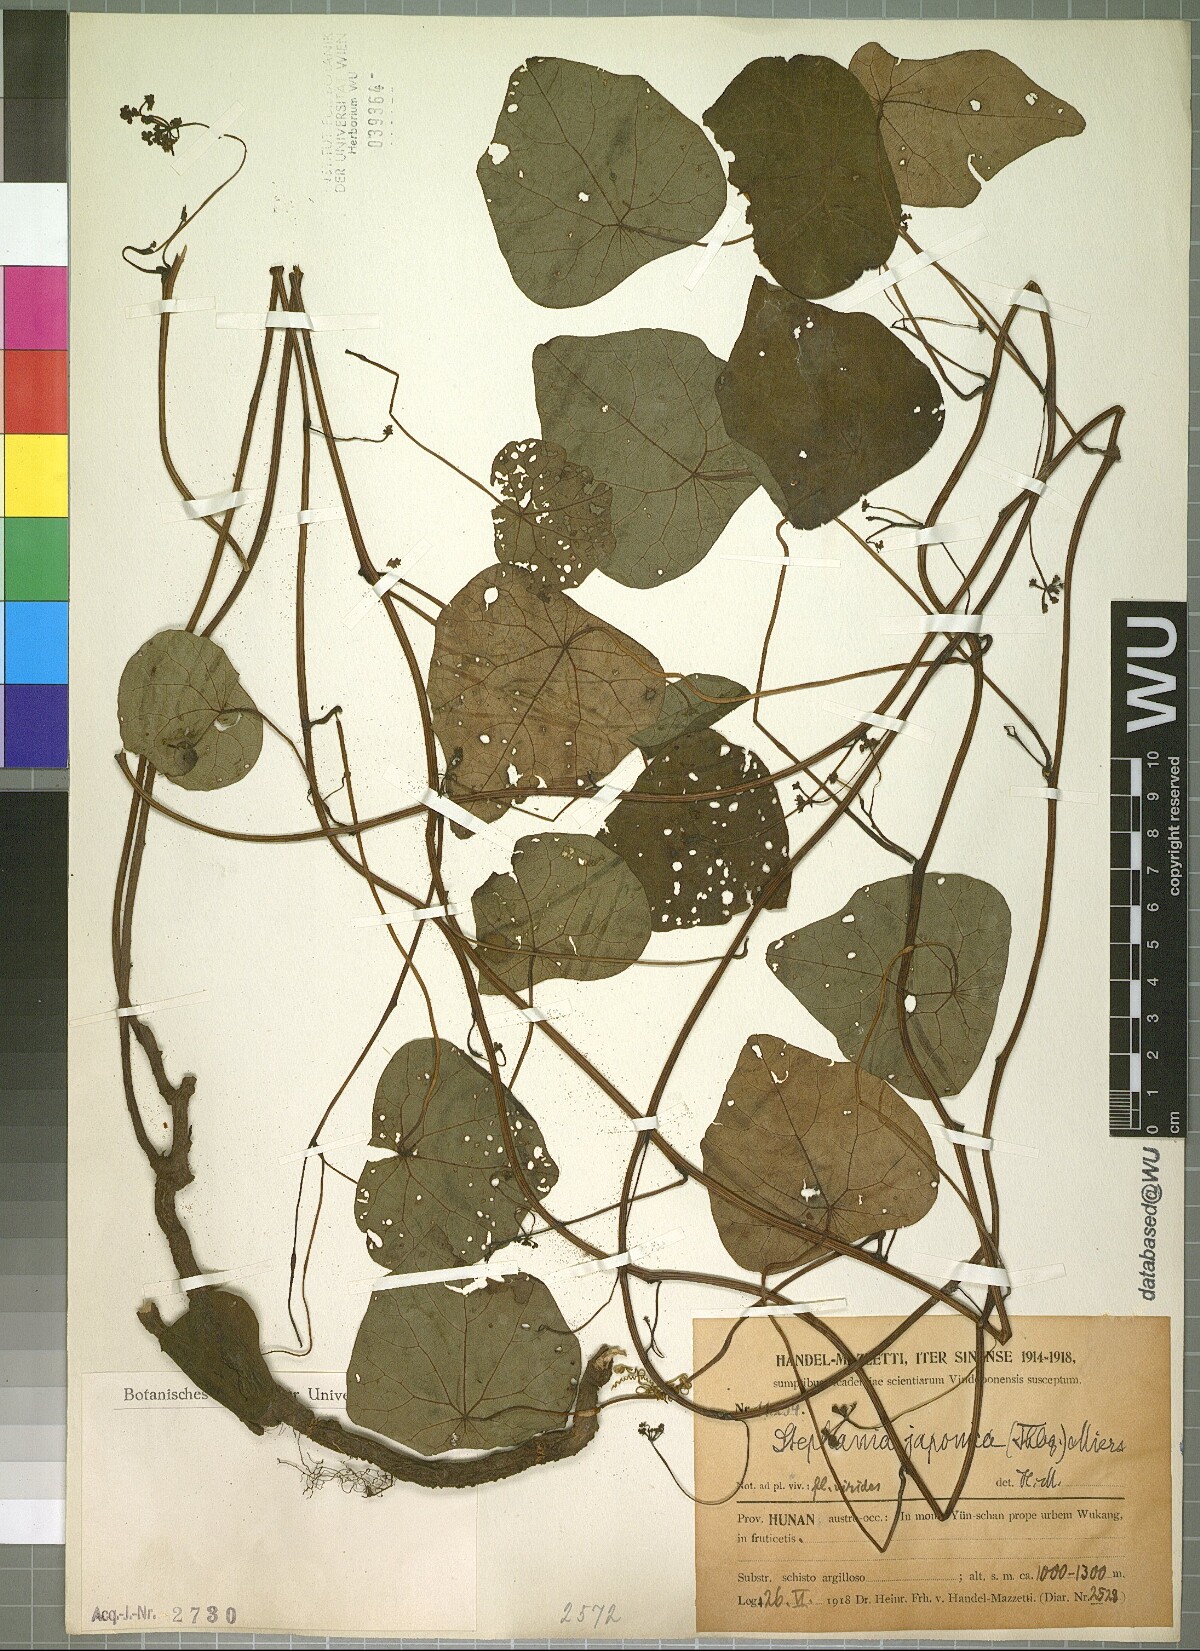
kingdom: Plantae
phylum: Tracheophyta
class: Magnoliopsida
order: Ranunculales
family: Menispermaceae
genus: Stephania
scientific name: Stephania japonica
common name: Snake vine
